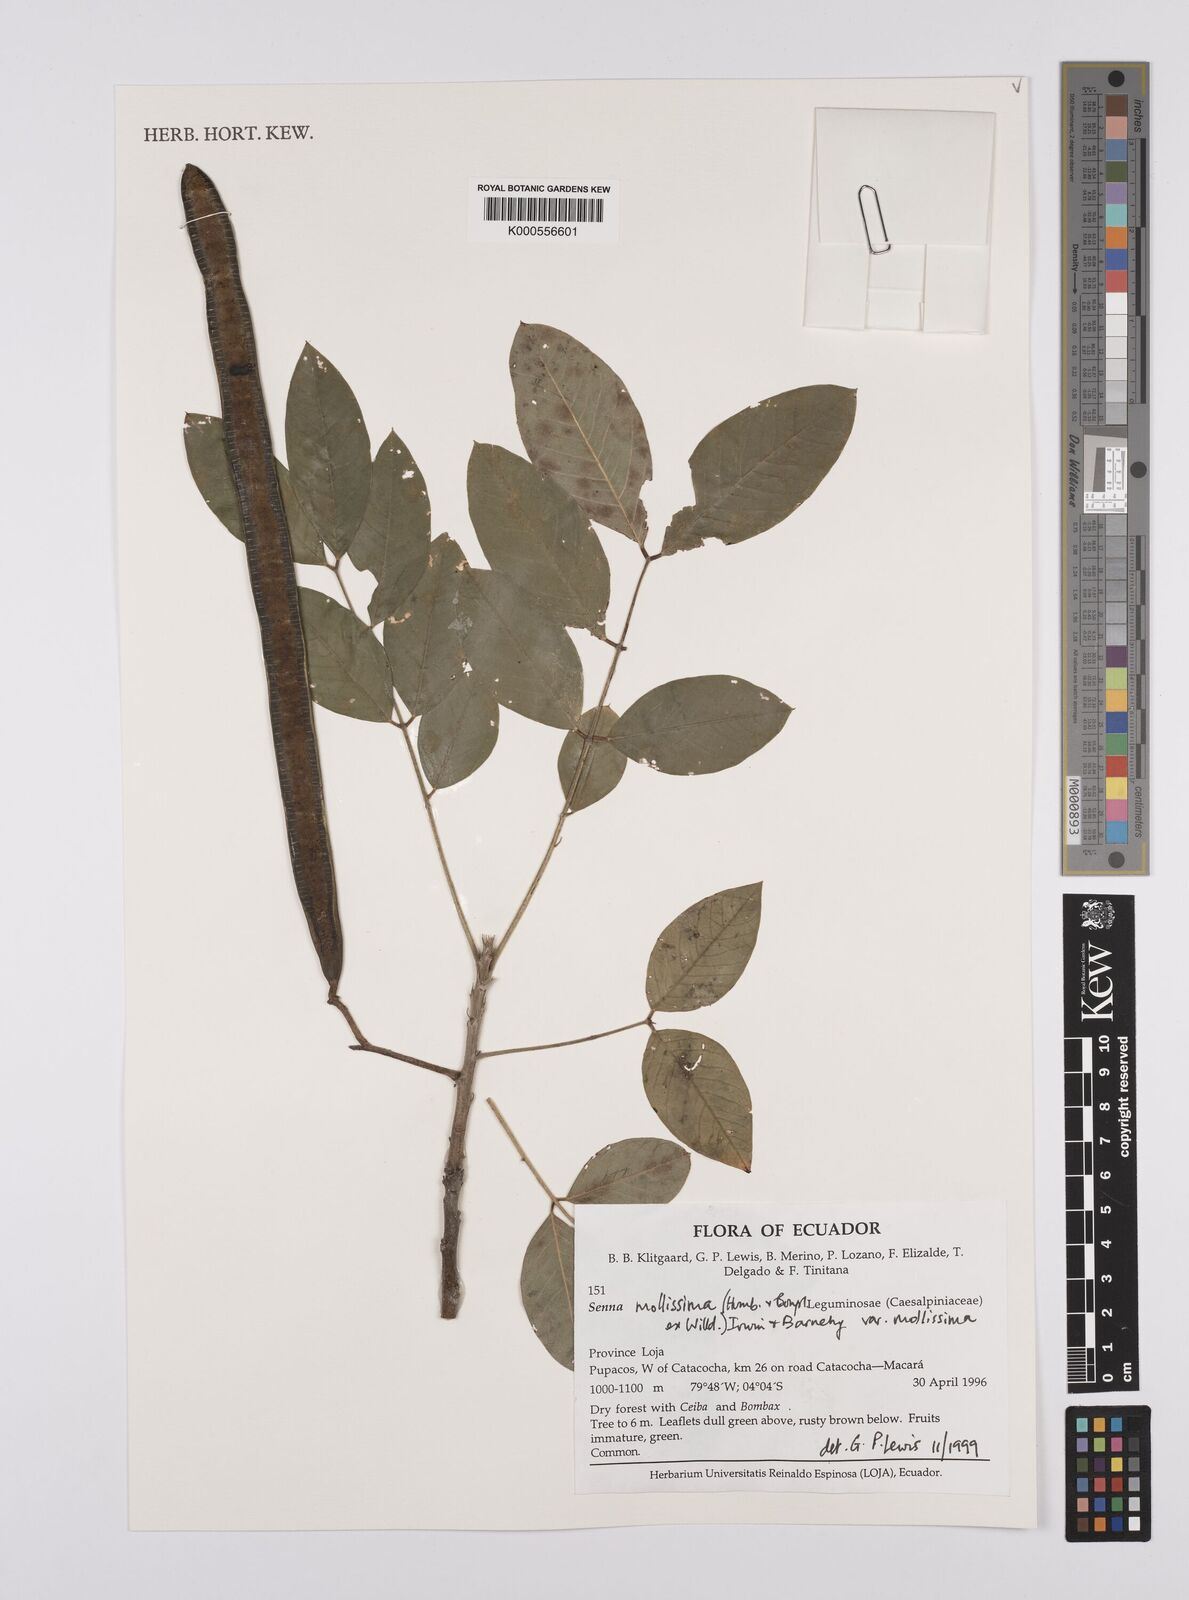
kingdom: Plantae
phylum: Tracheophyta
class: Magnoliopsida
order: Fabales
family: Fabaceae
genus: Senna
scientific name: Senna mollissima
